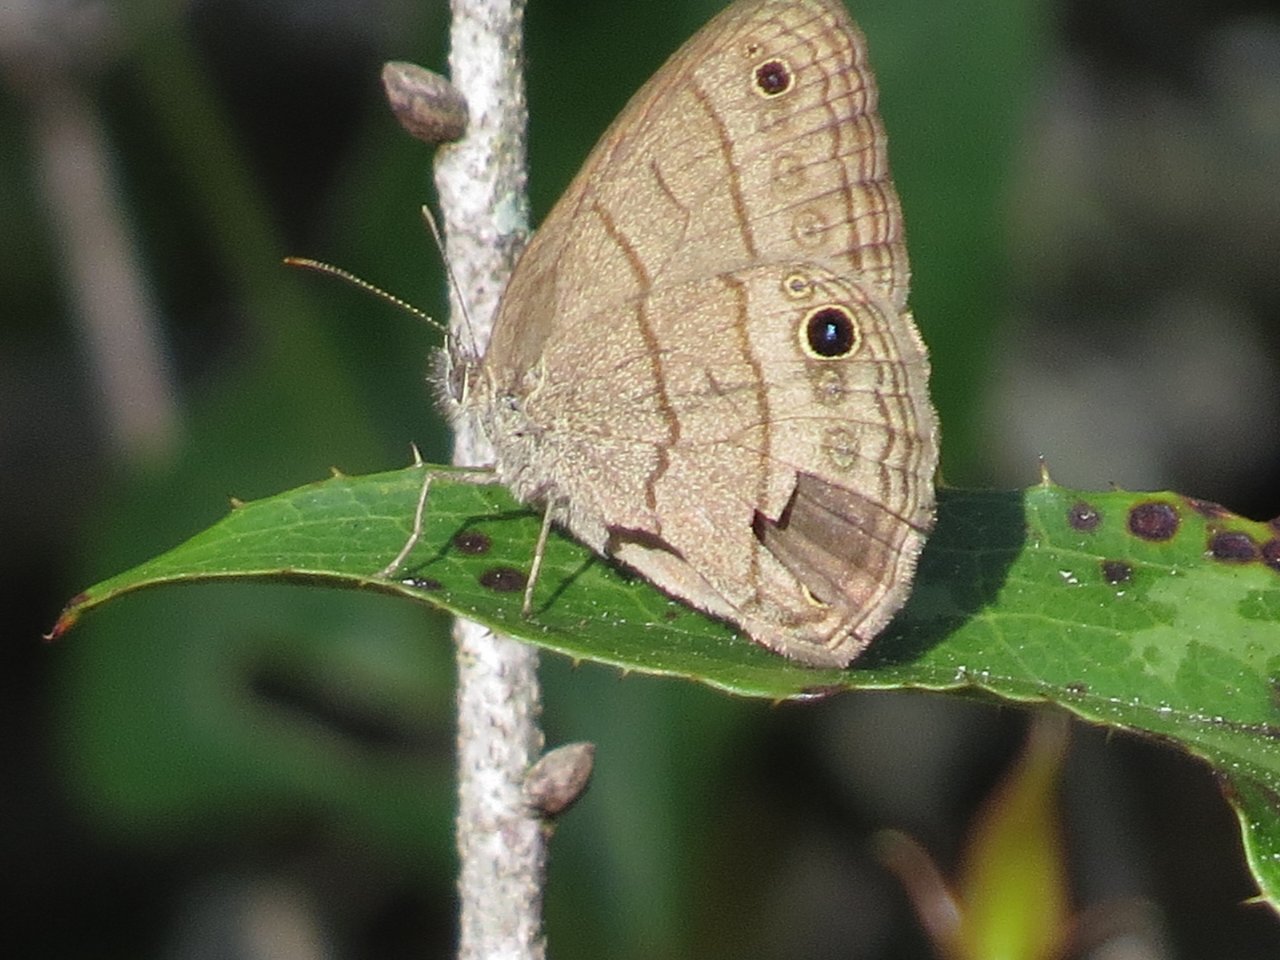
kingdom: Animalia
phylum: Arthropoda
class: Insecta
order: Lepidoptera
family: Nymphalidae
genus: Hermeuptychia
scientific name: Hermeuptychia hermes
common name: Carolina Satyr
